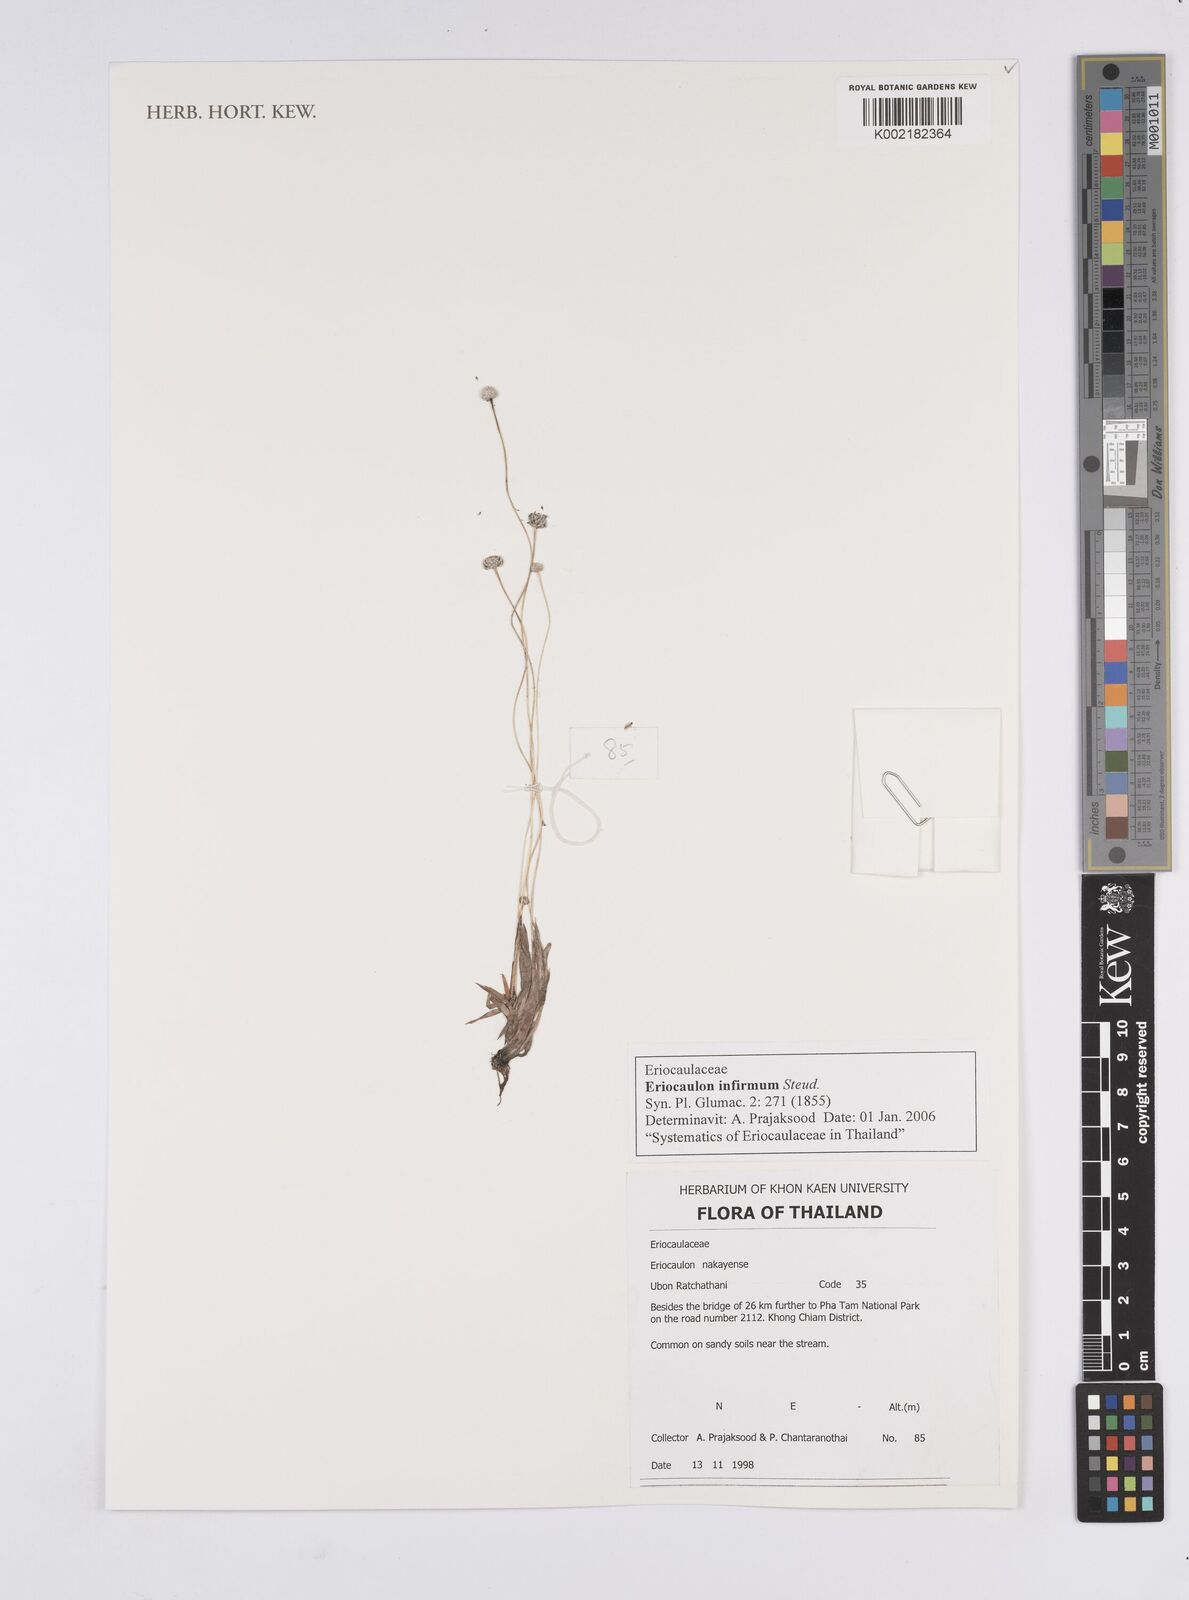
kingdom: Plantae
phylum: Tracheophyta
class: Liliopsida
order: Poales
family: Eriocaulaceae
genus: Eriocaulon
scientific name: Eriocaulon infirmum
